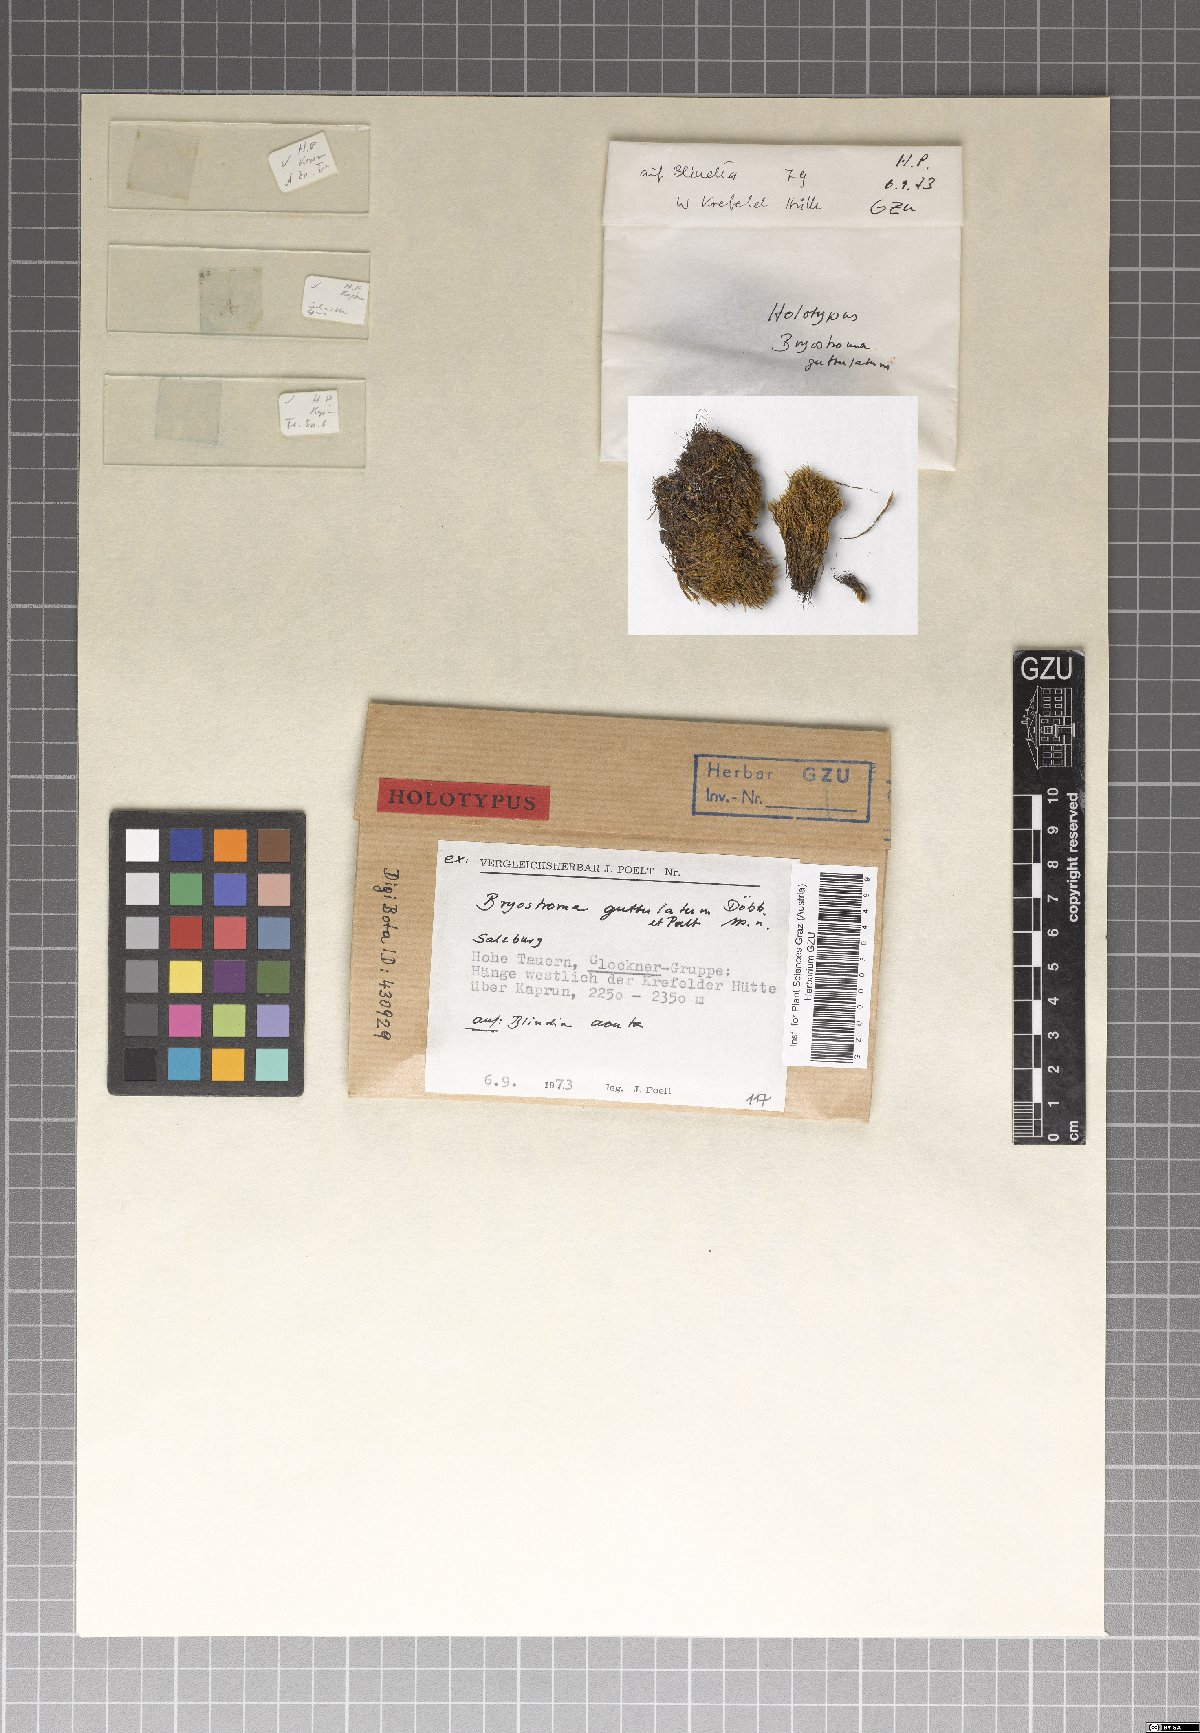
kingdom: Fungi
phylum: Ascomycota
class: Dothideomycetes
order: Dothideales
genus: Bryostroma
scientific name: Bryostroma guttulatum
